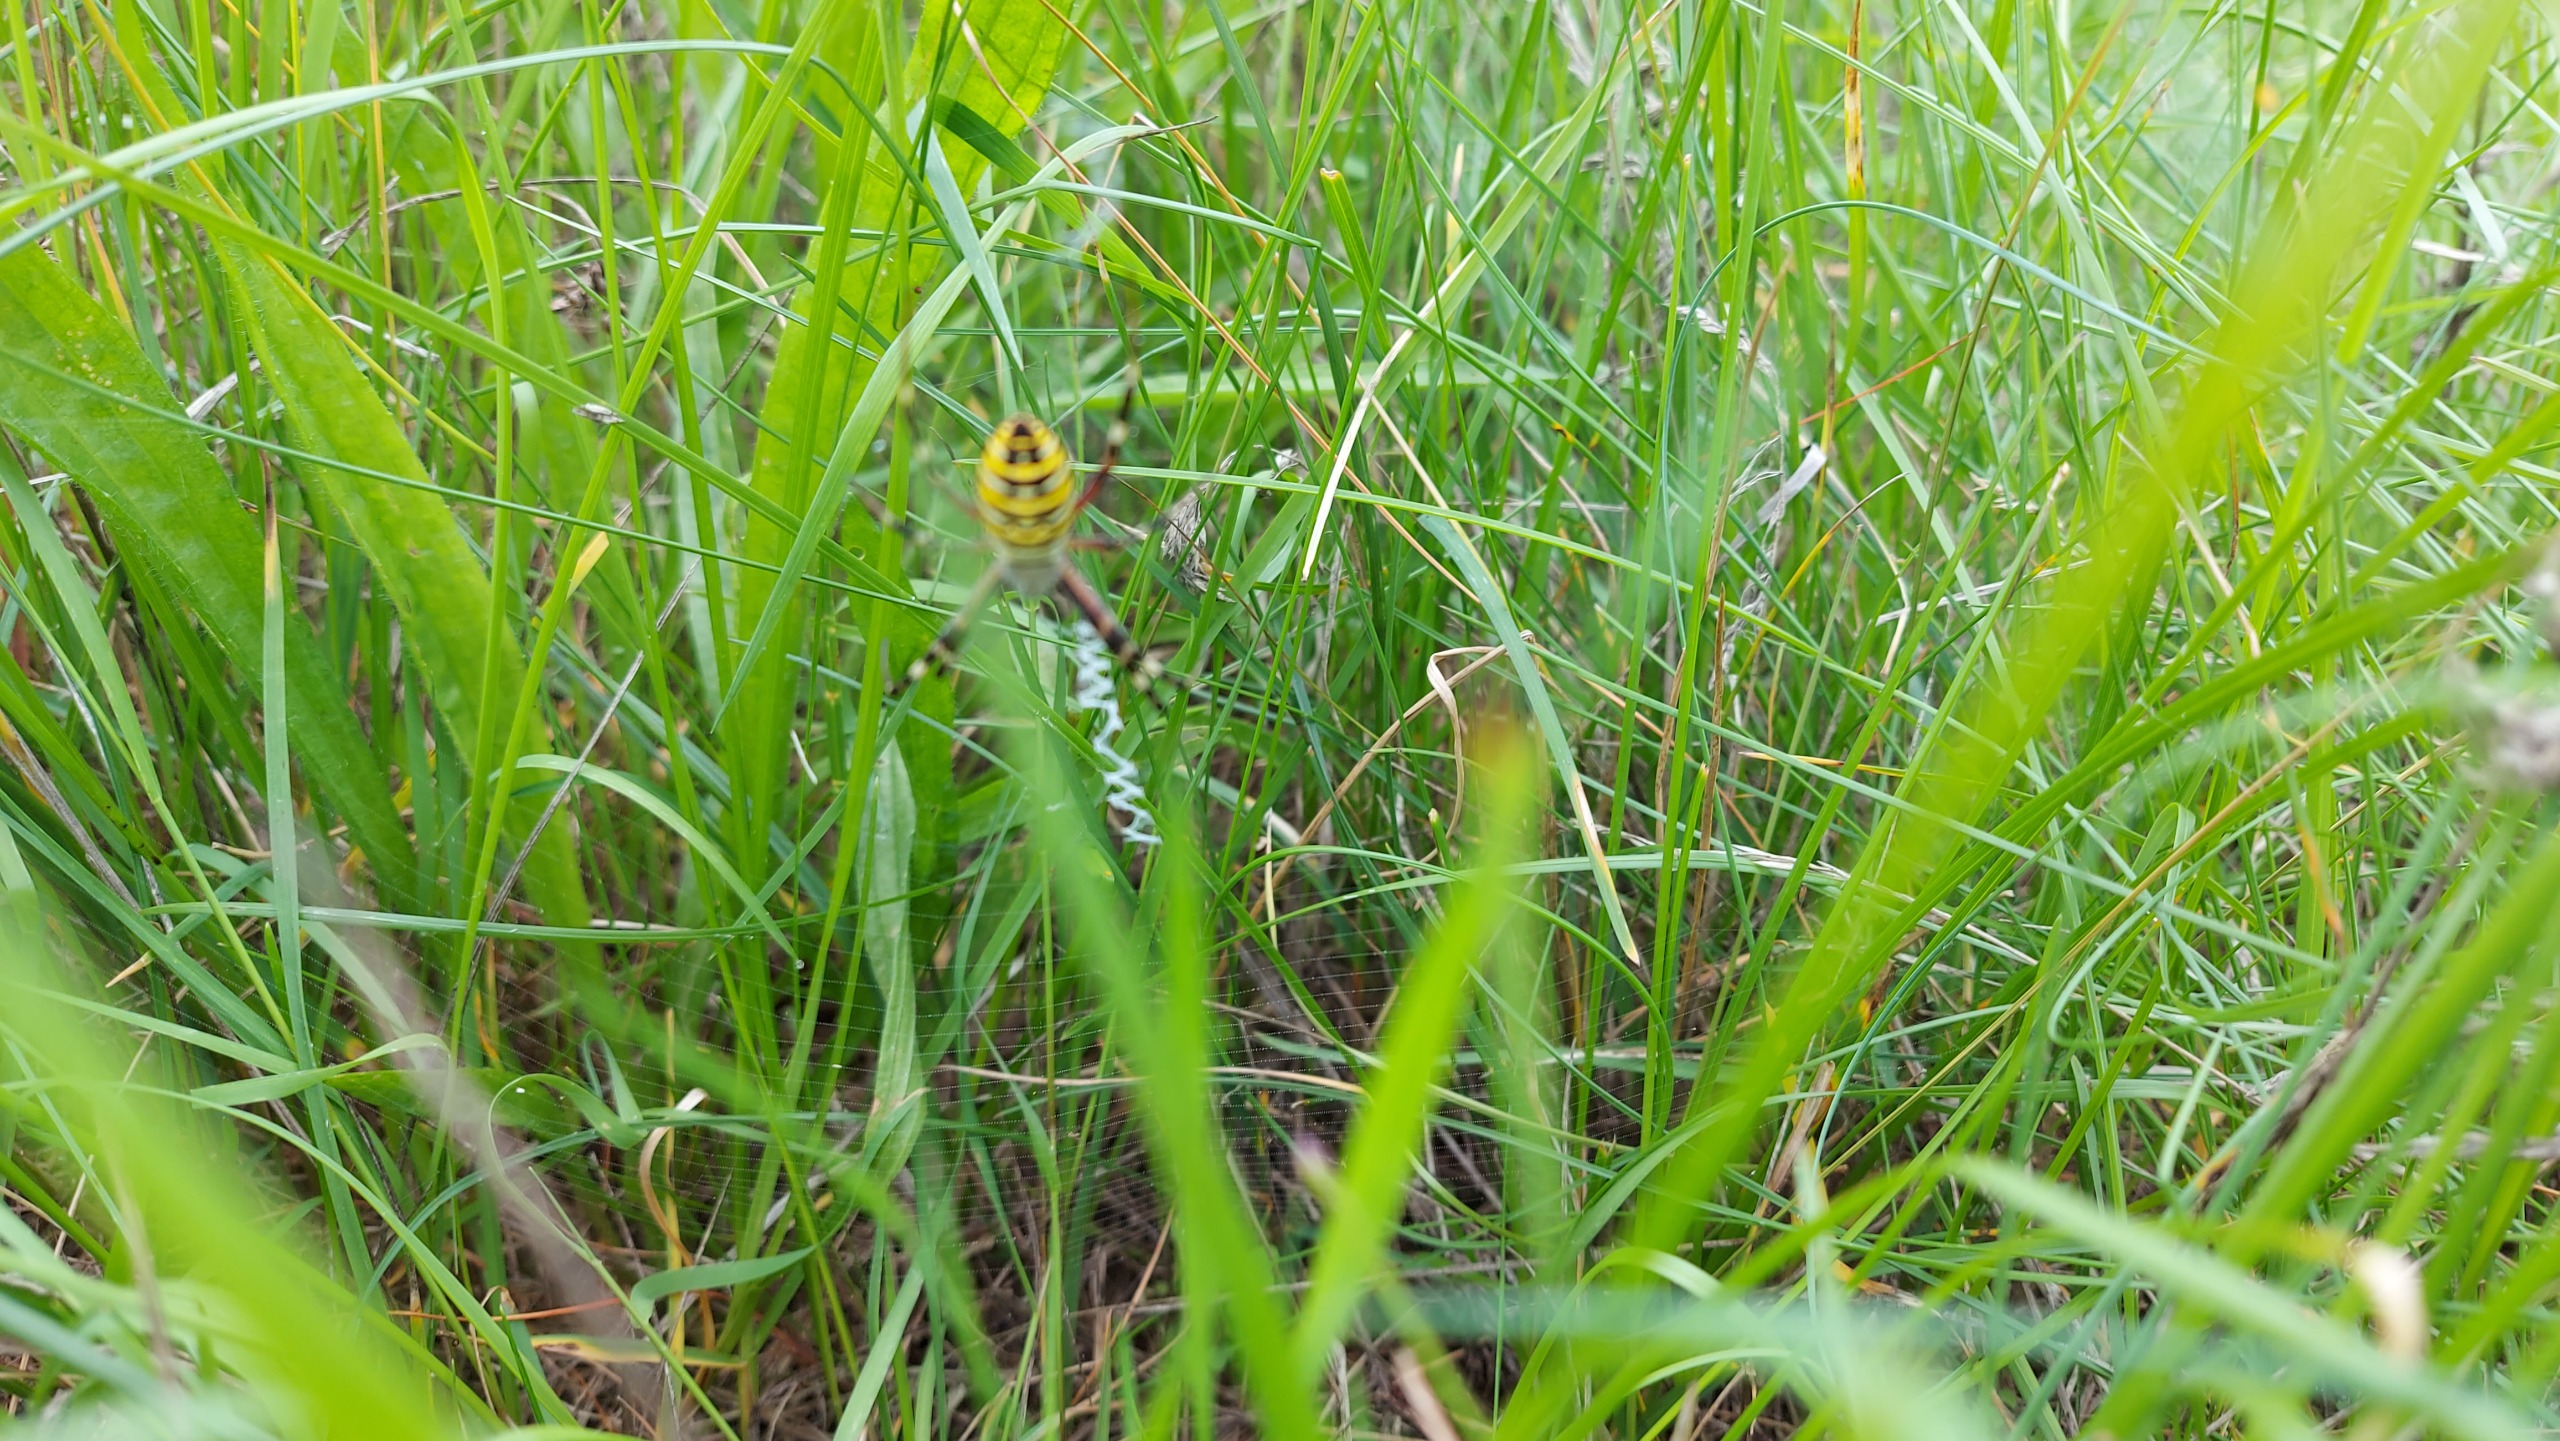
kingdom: Animalia
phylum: Arthropoda
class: Arachnida
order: Araneae
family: Araneidae
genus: Argiope
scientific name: Argiope bruennichi
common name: Hvepseedderkop
